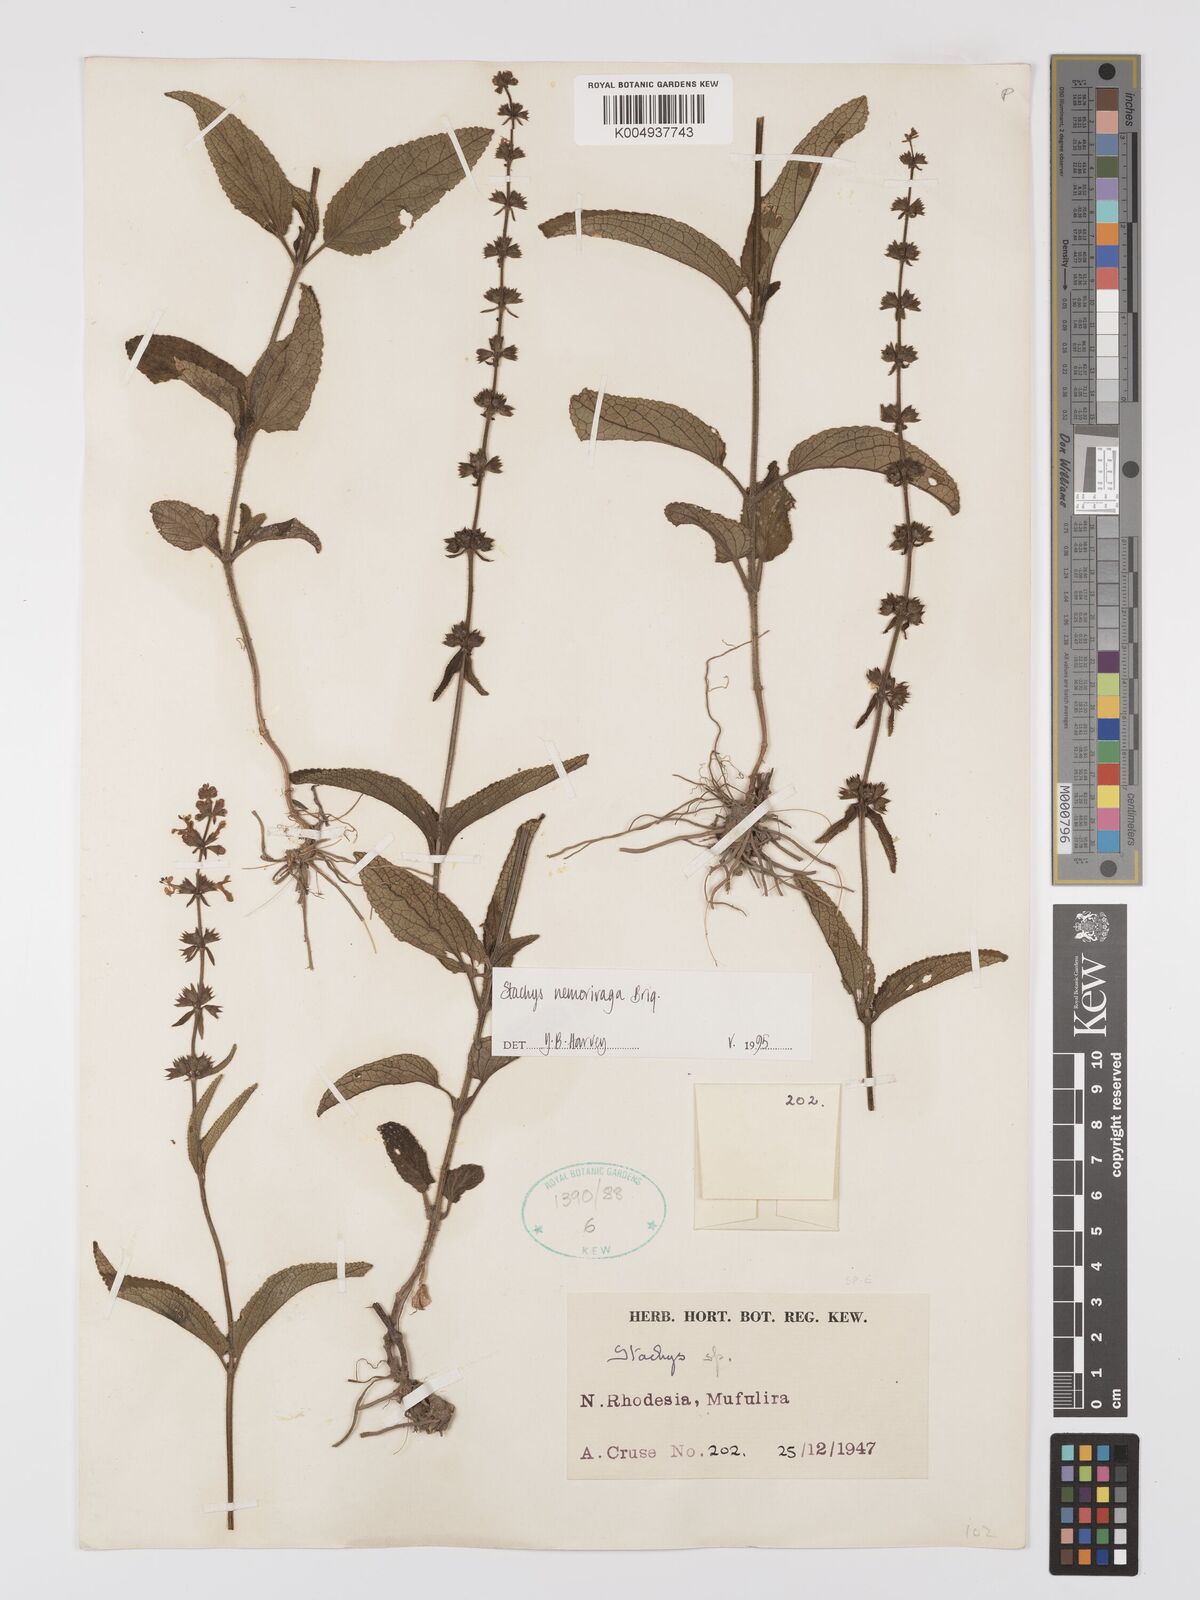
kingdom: Plantae
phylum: Tracheophyta
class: Magnoliopsida
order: Lamiales
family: Lamiaceae
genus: Stachys
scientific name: Stachys nemorivaga
